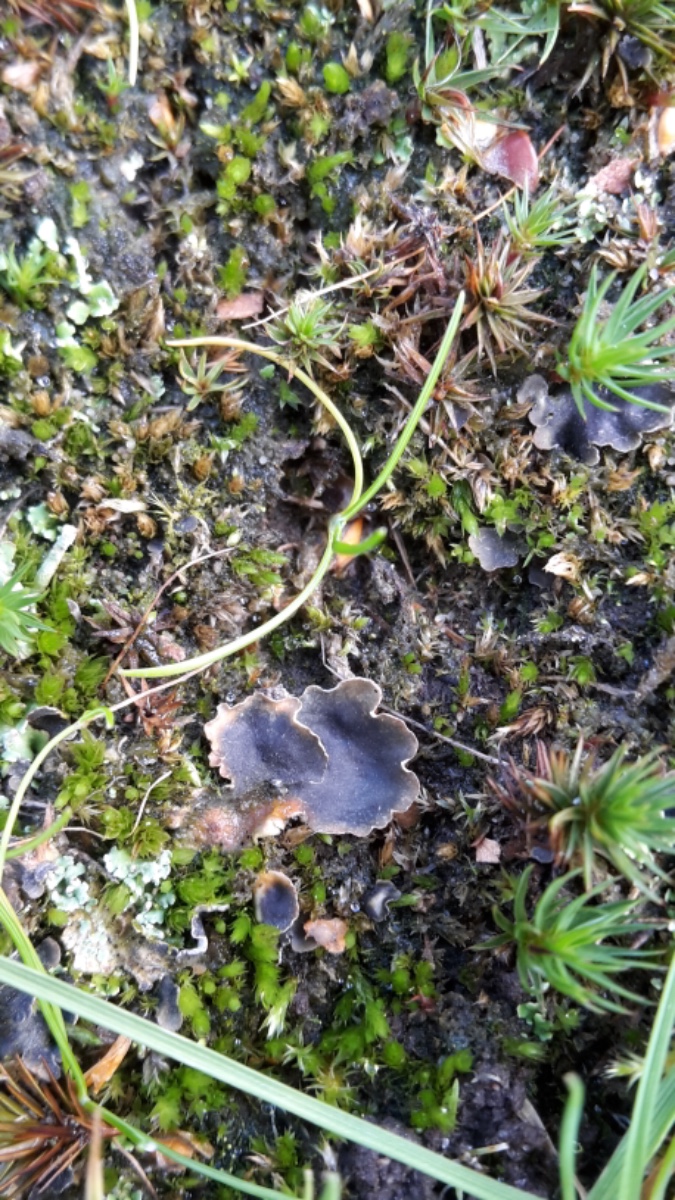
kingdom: Fungi
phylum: Basidiomycota
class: Agaricomycetes
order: Agaricales
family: Hygrophoraceae
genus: Arrhenia
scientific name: Arrhenia peltigerina
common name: skjoldlav-fontænehat
